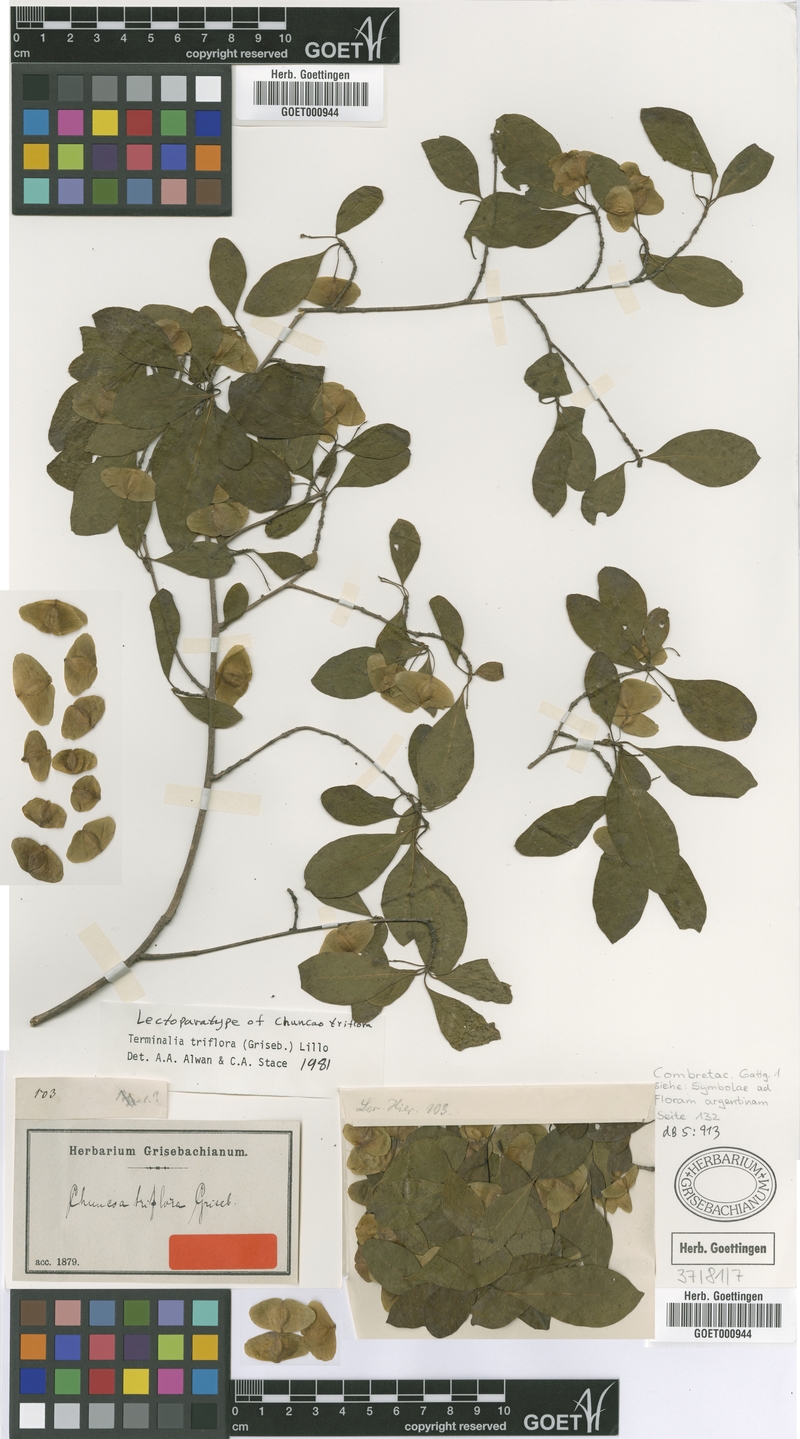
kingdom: Plantae
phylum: Tracheophyta
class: Magnoliopsida
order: Myrtales
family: Combretaceae
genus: Terminalia
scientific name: Terminalia triflora
